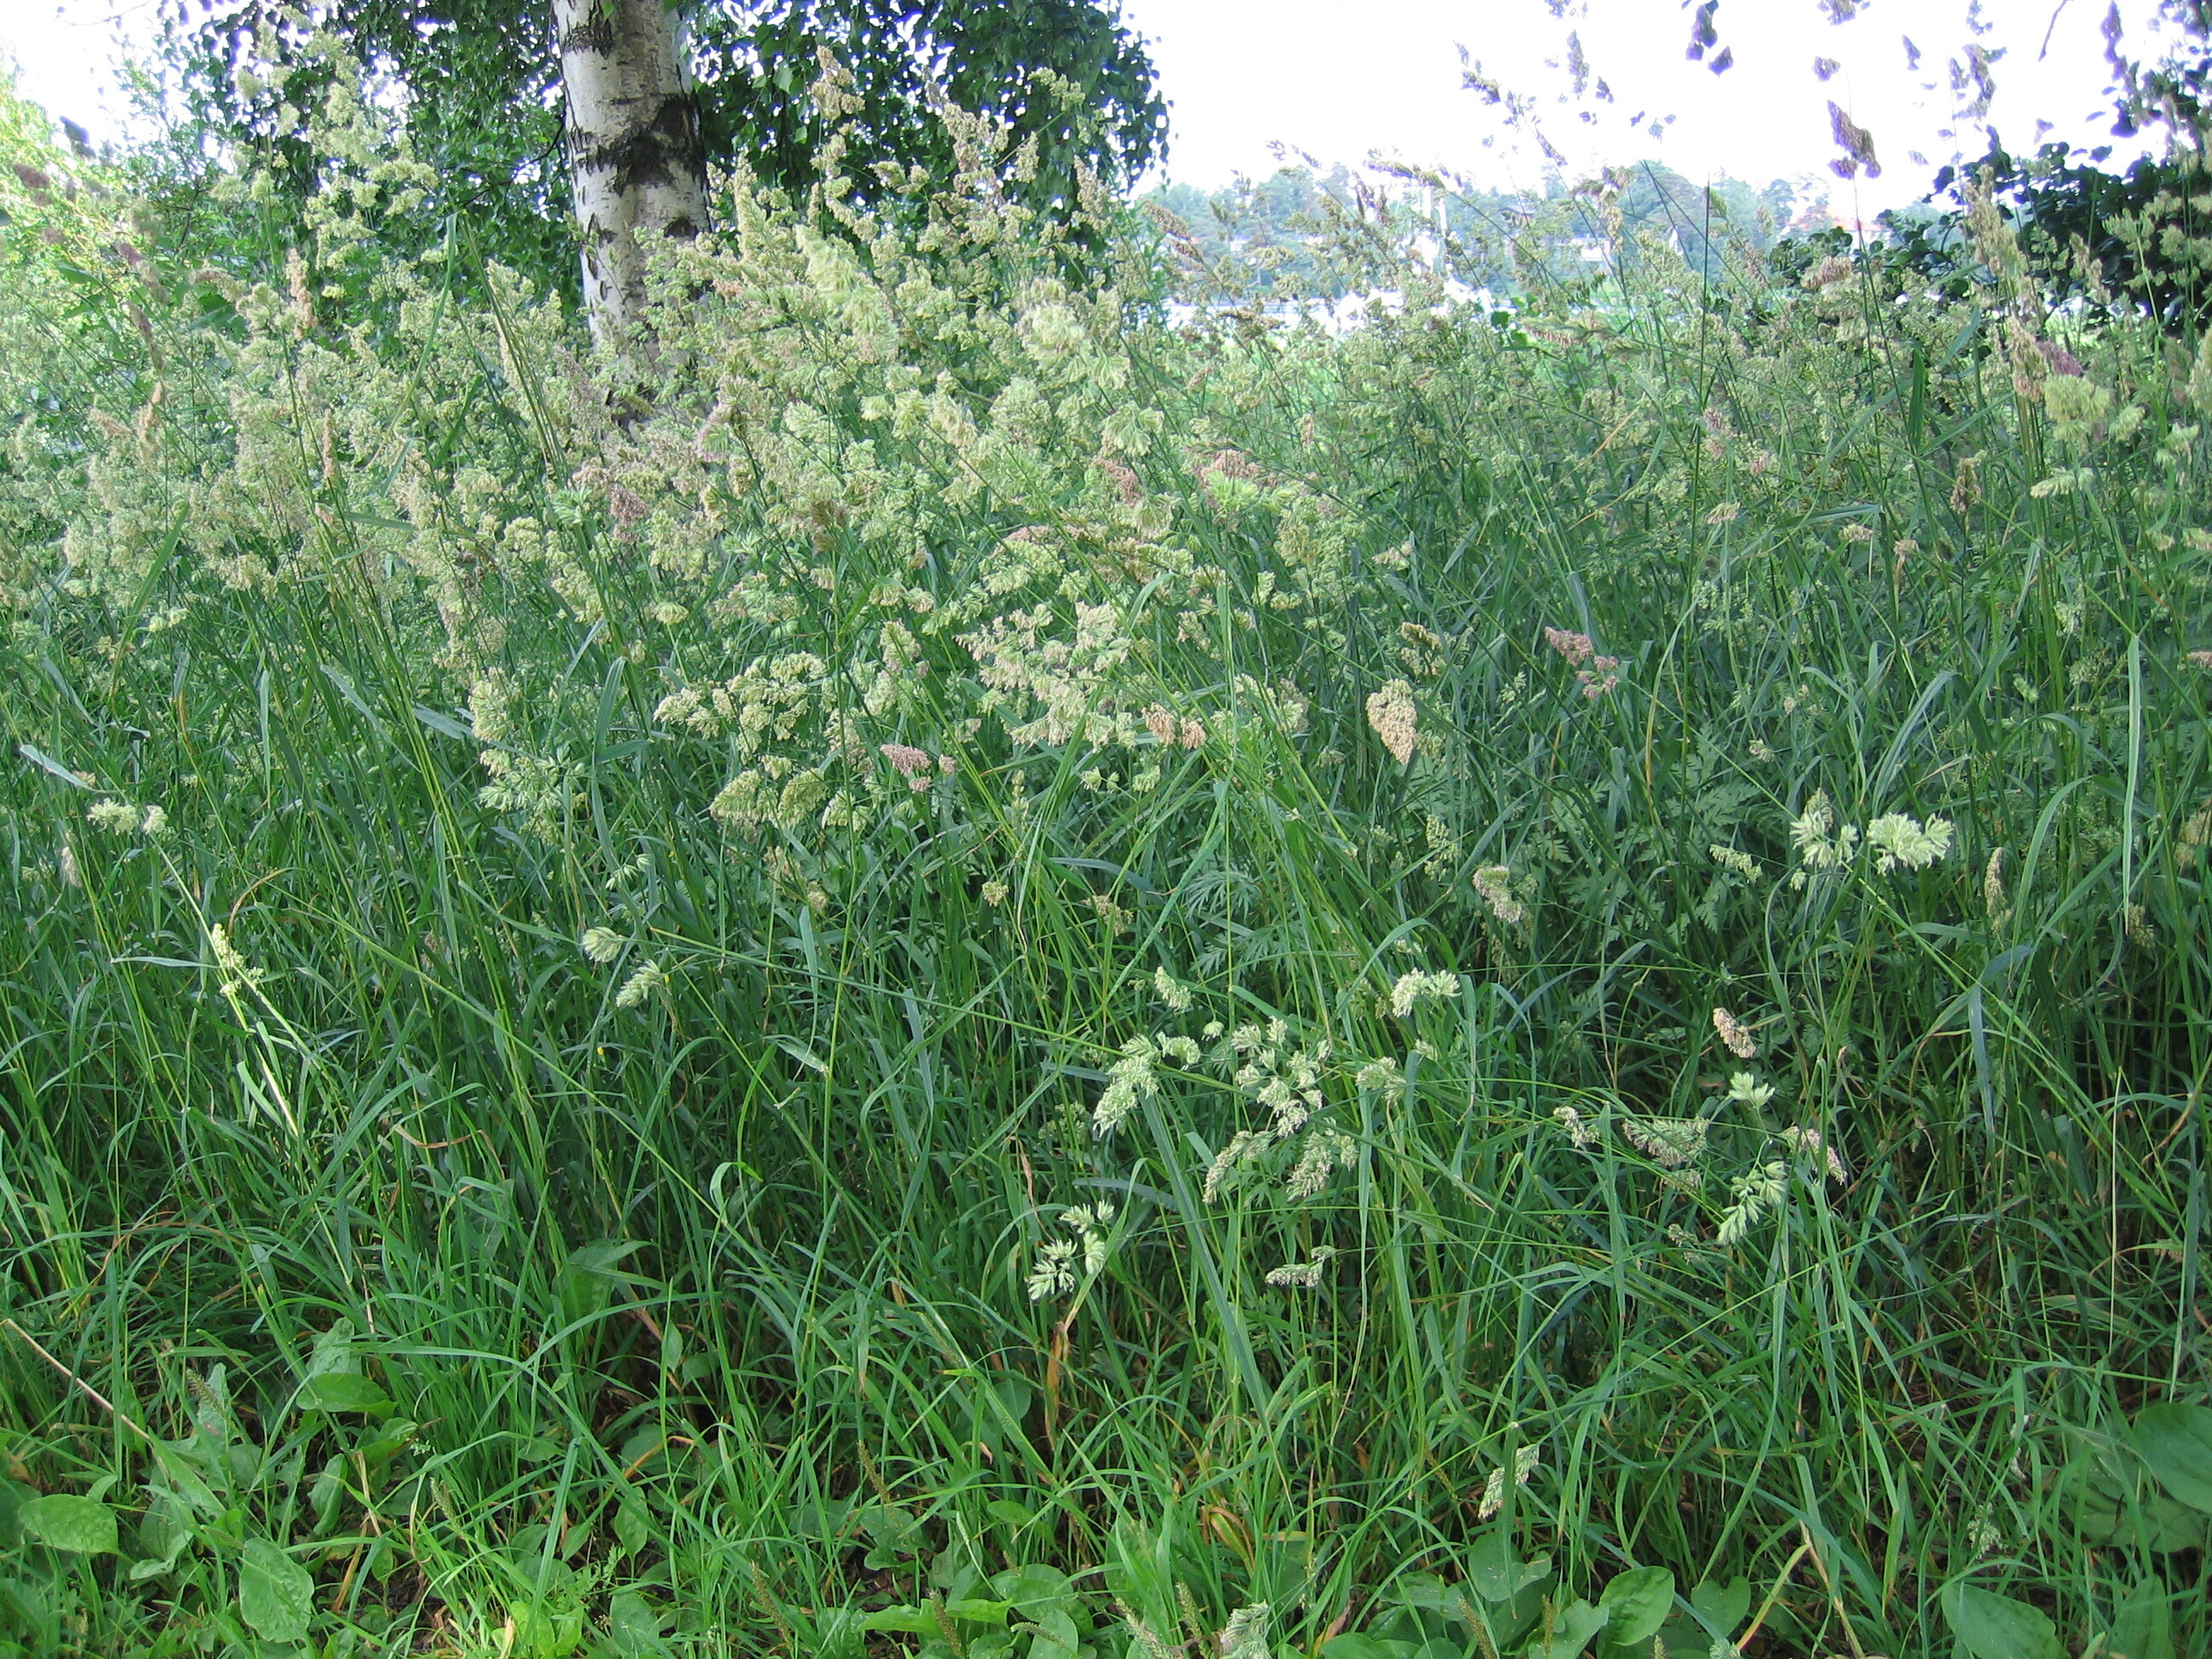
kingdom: Plantae
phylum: Tracheophyta
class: Liliopsida
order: Poales
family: Poaceae
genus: Dactylis
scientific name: Dactylis glomerata
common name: Orchardgrass
